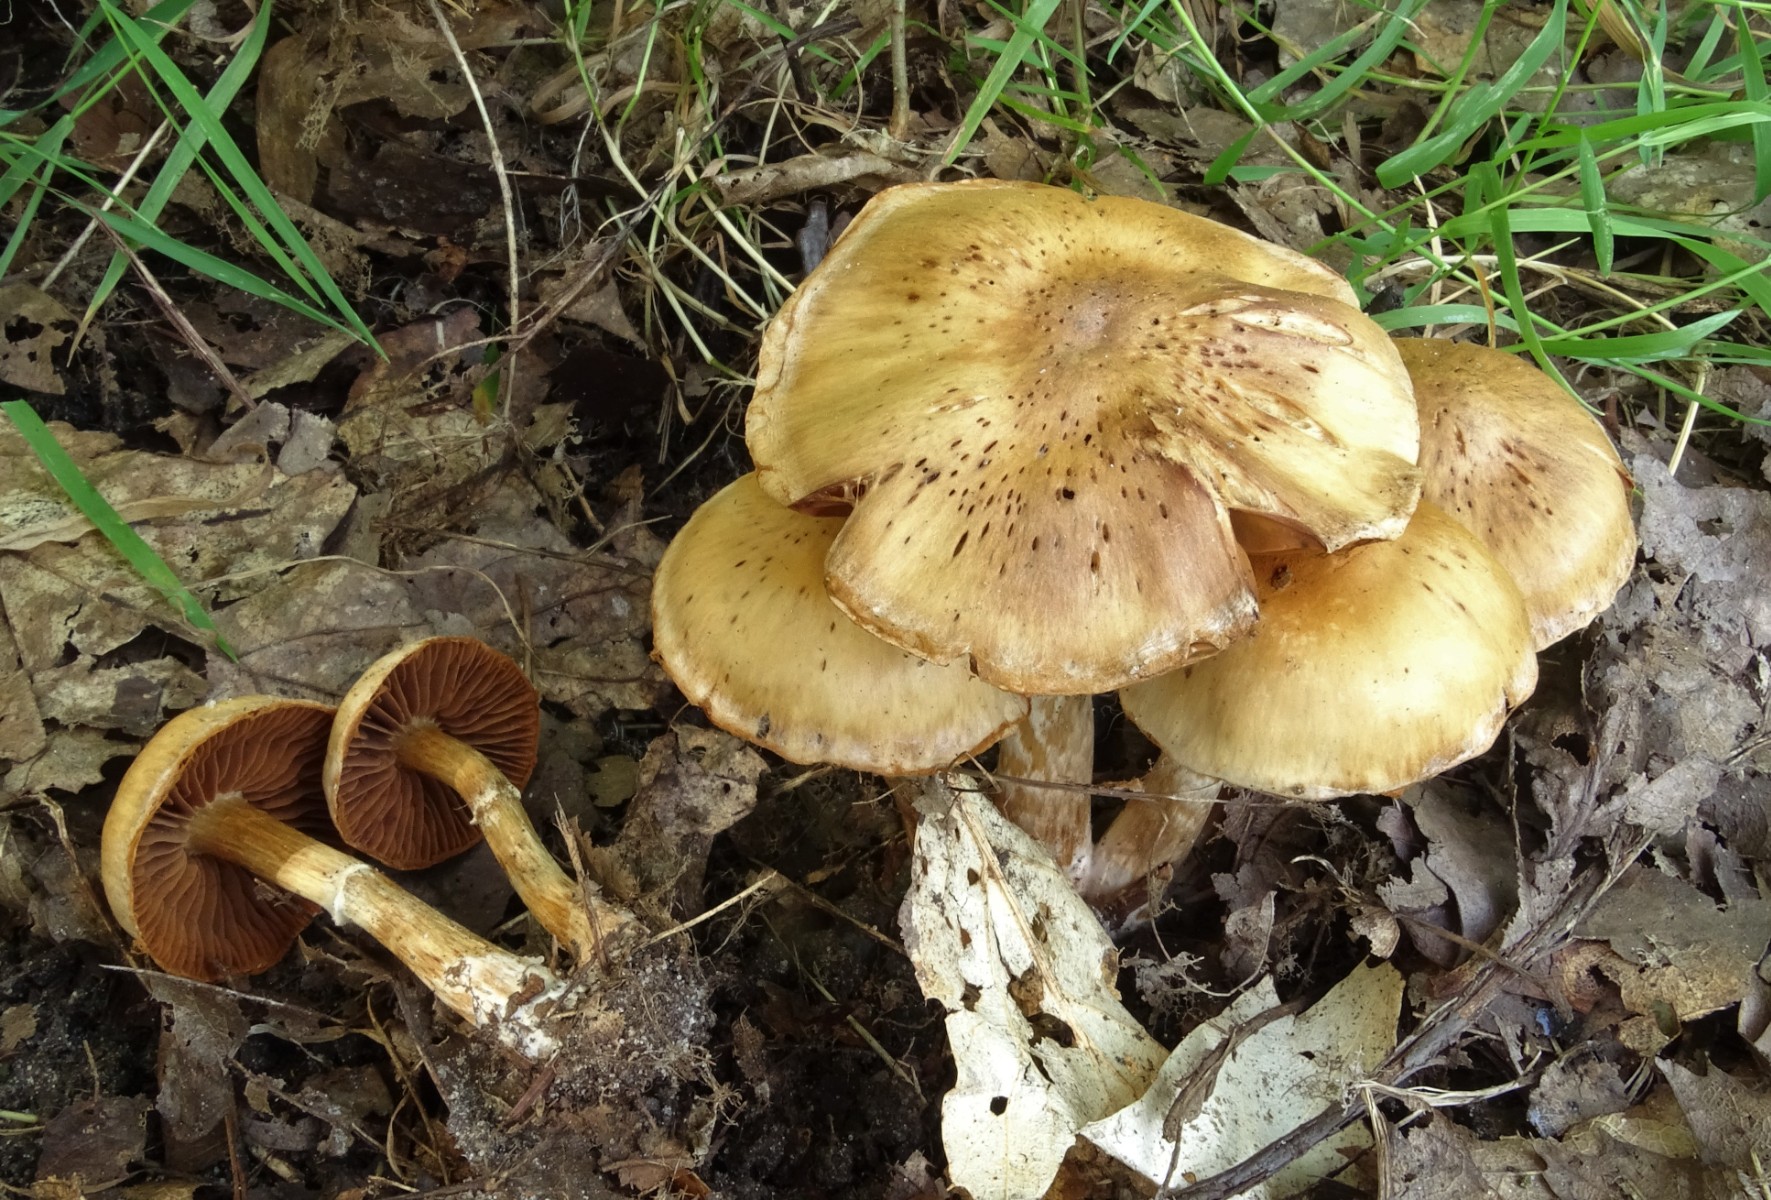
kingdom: Fungi
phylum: Basidiomycota
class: Agaricomycetes
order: Agaricales
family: Cortinariaceae
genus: Cortinarius
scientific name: Cortinarius
